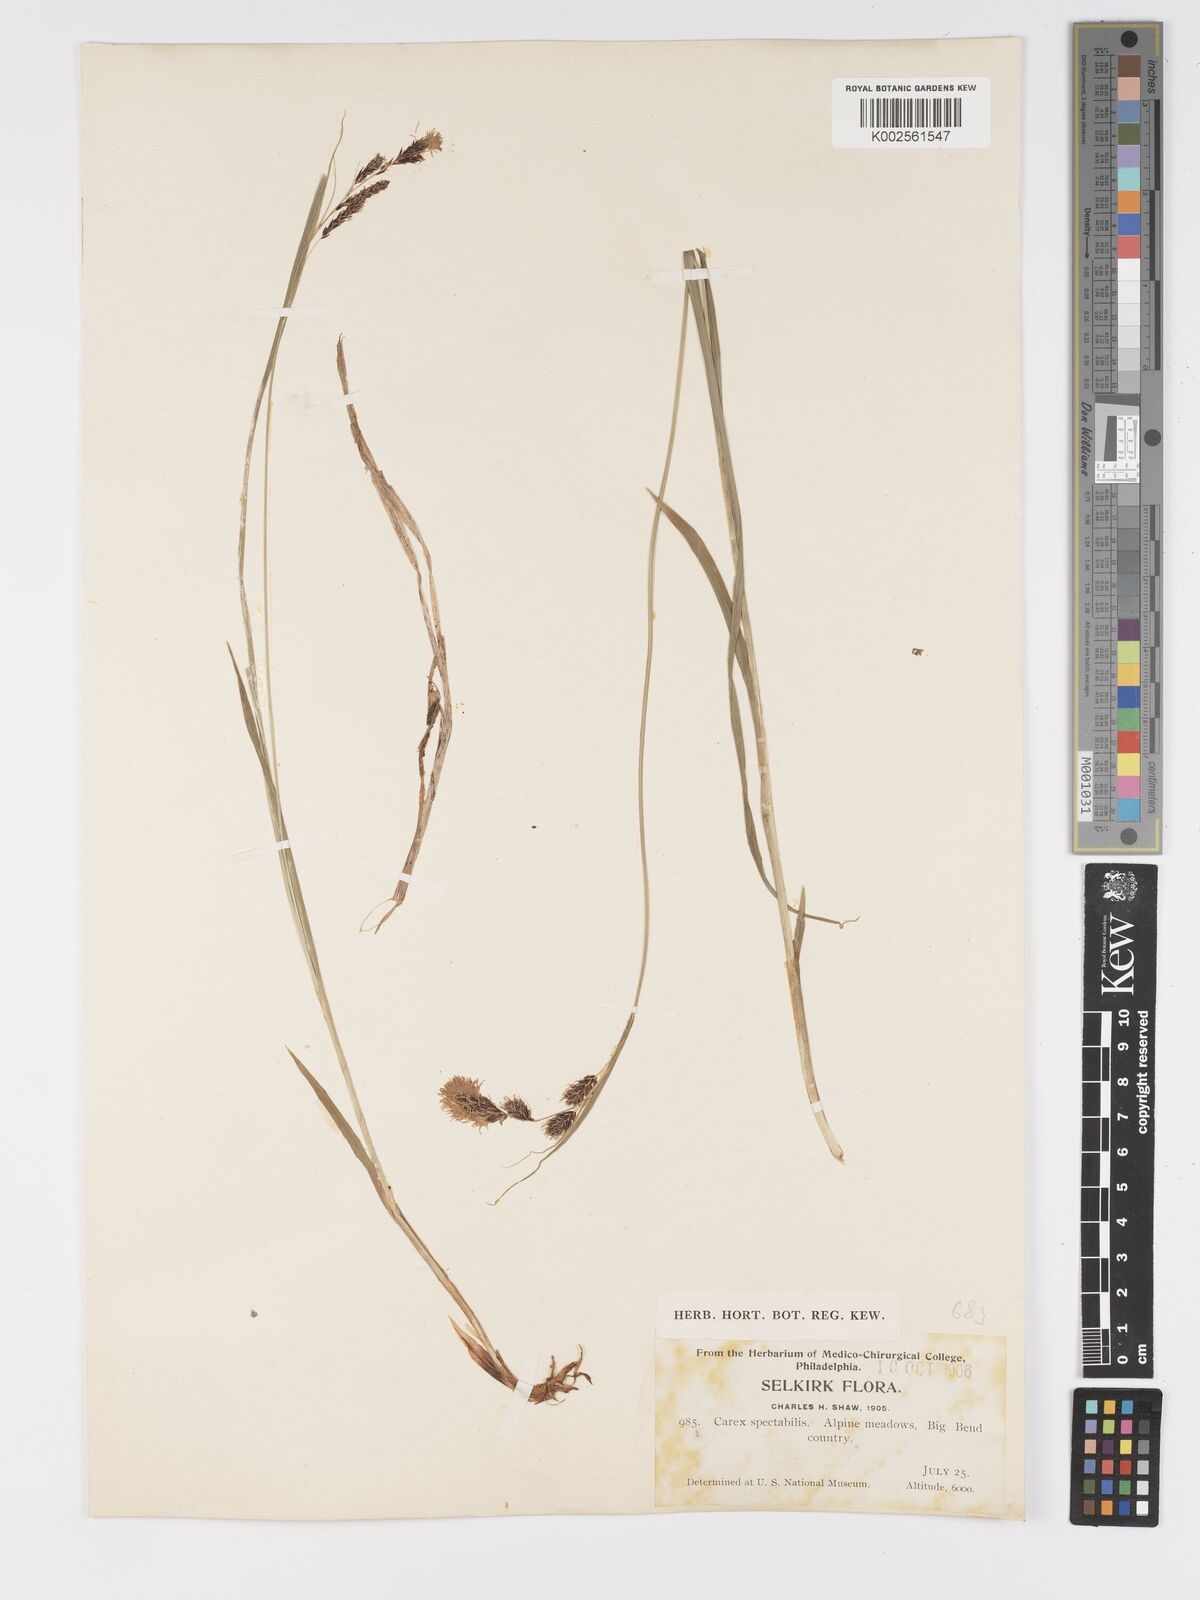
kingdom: Plantae
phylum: Tracheophyta
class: Liliopsida
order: Poales
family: Cyperaceae
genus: Carex
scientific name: Carex spectabilis
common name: Northwestern showy sedge
